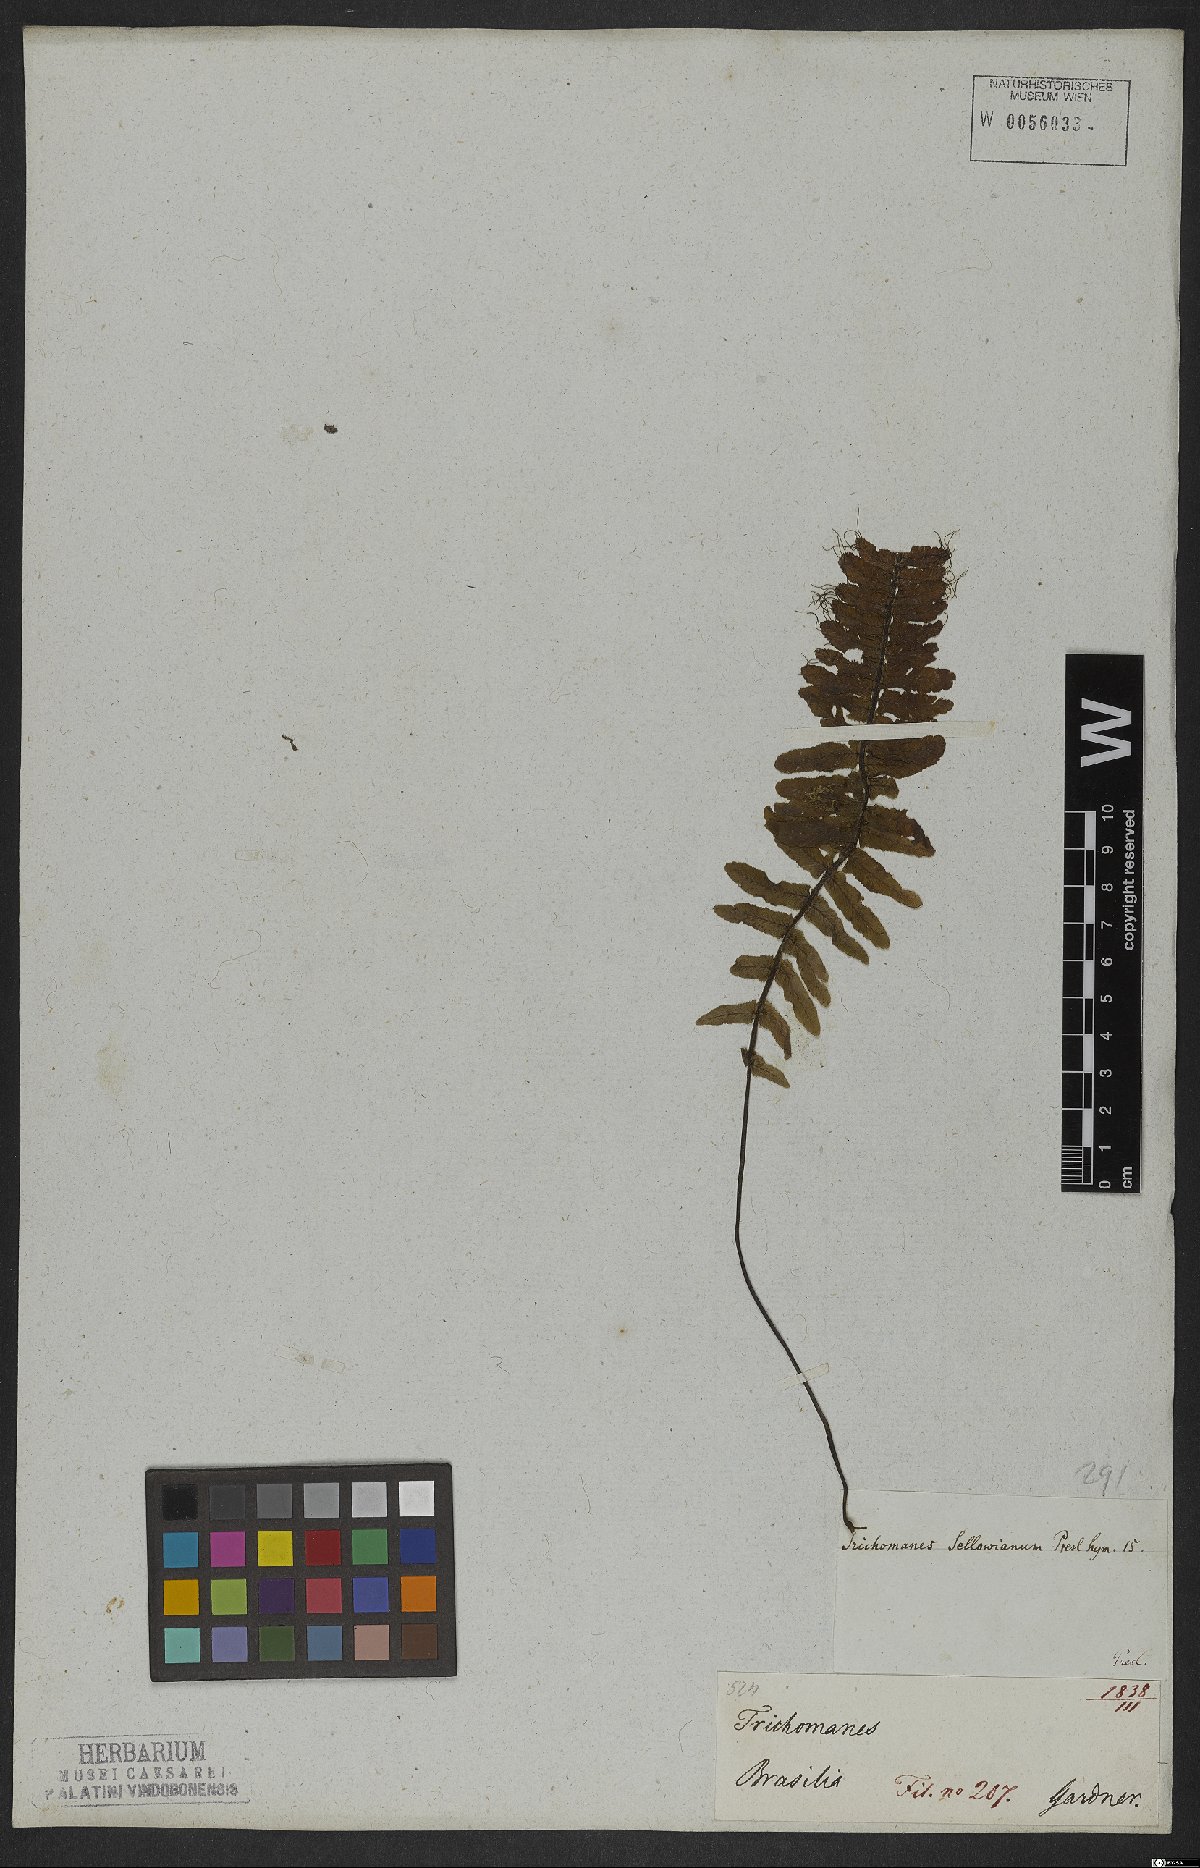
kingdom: Plantae
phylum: Tracheophyta
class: Polypodiopsida
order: Hymenophyllales
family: Hymenophyllaceae
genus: Trichomanes
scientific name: Trichomanes cristatum
